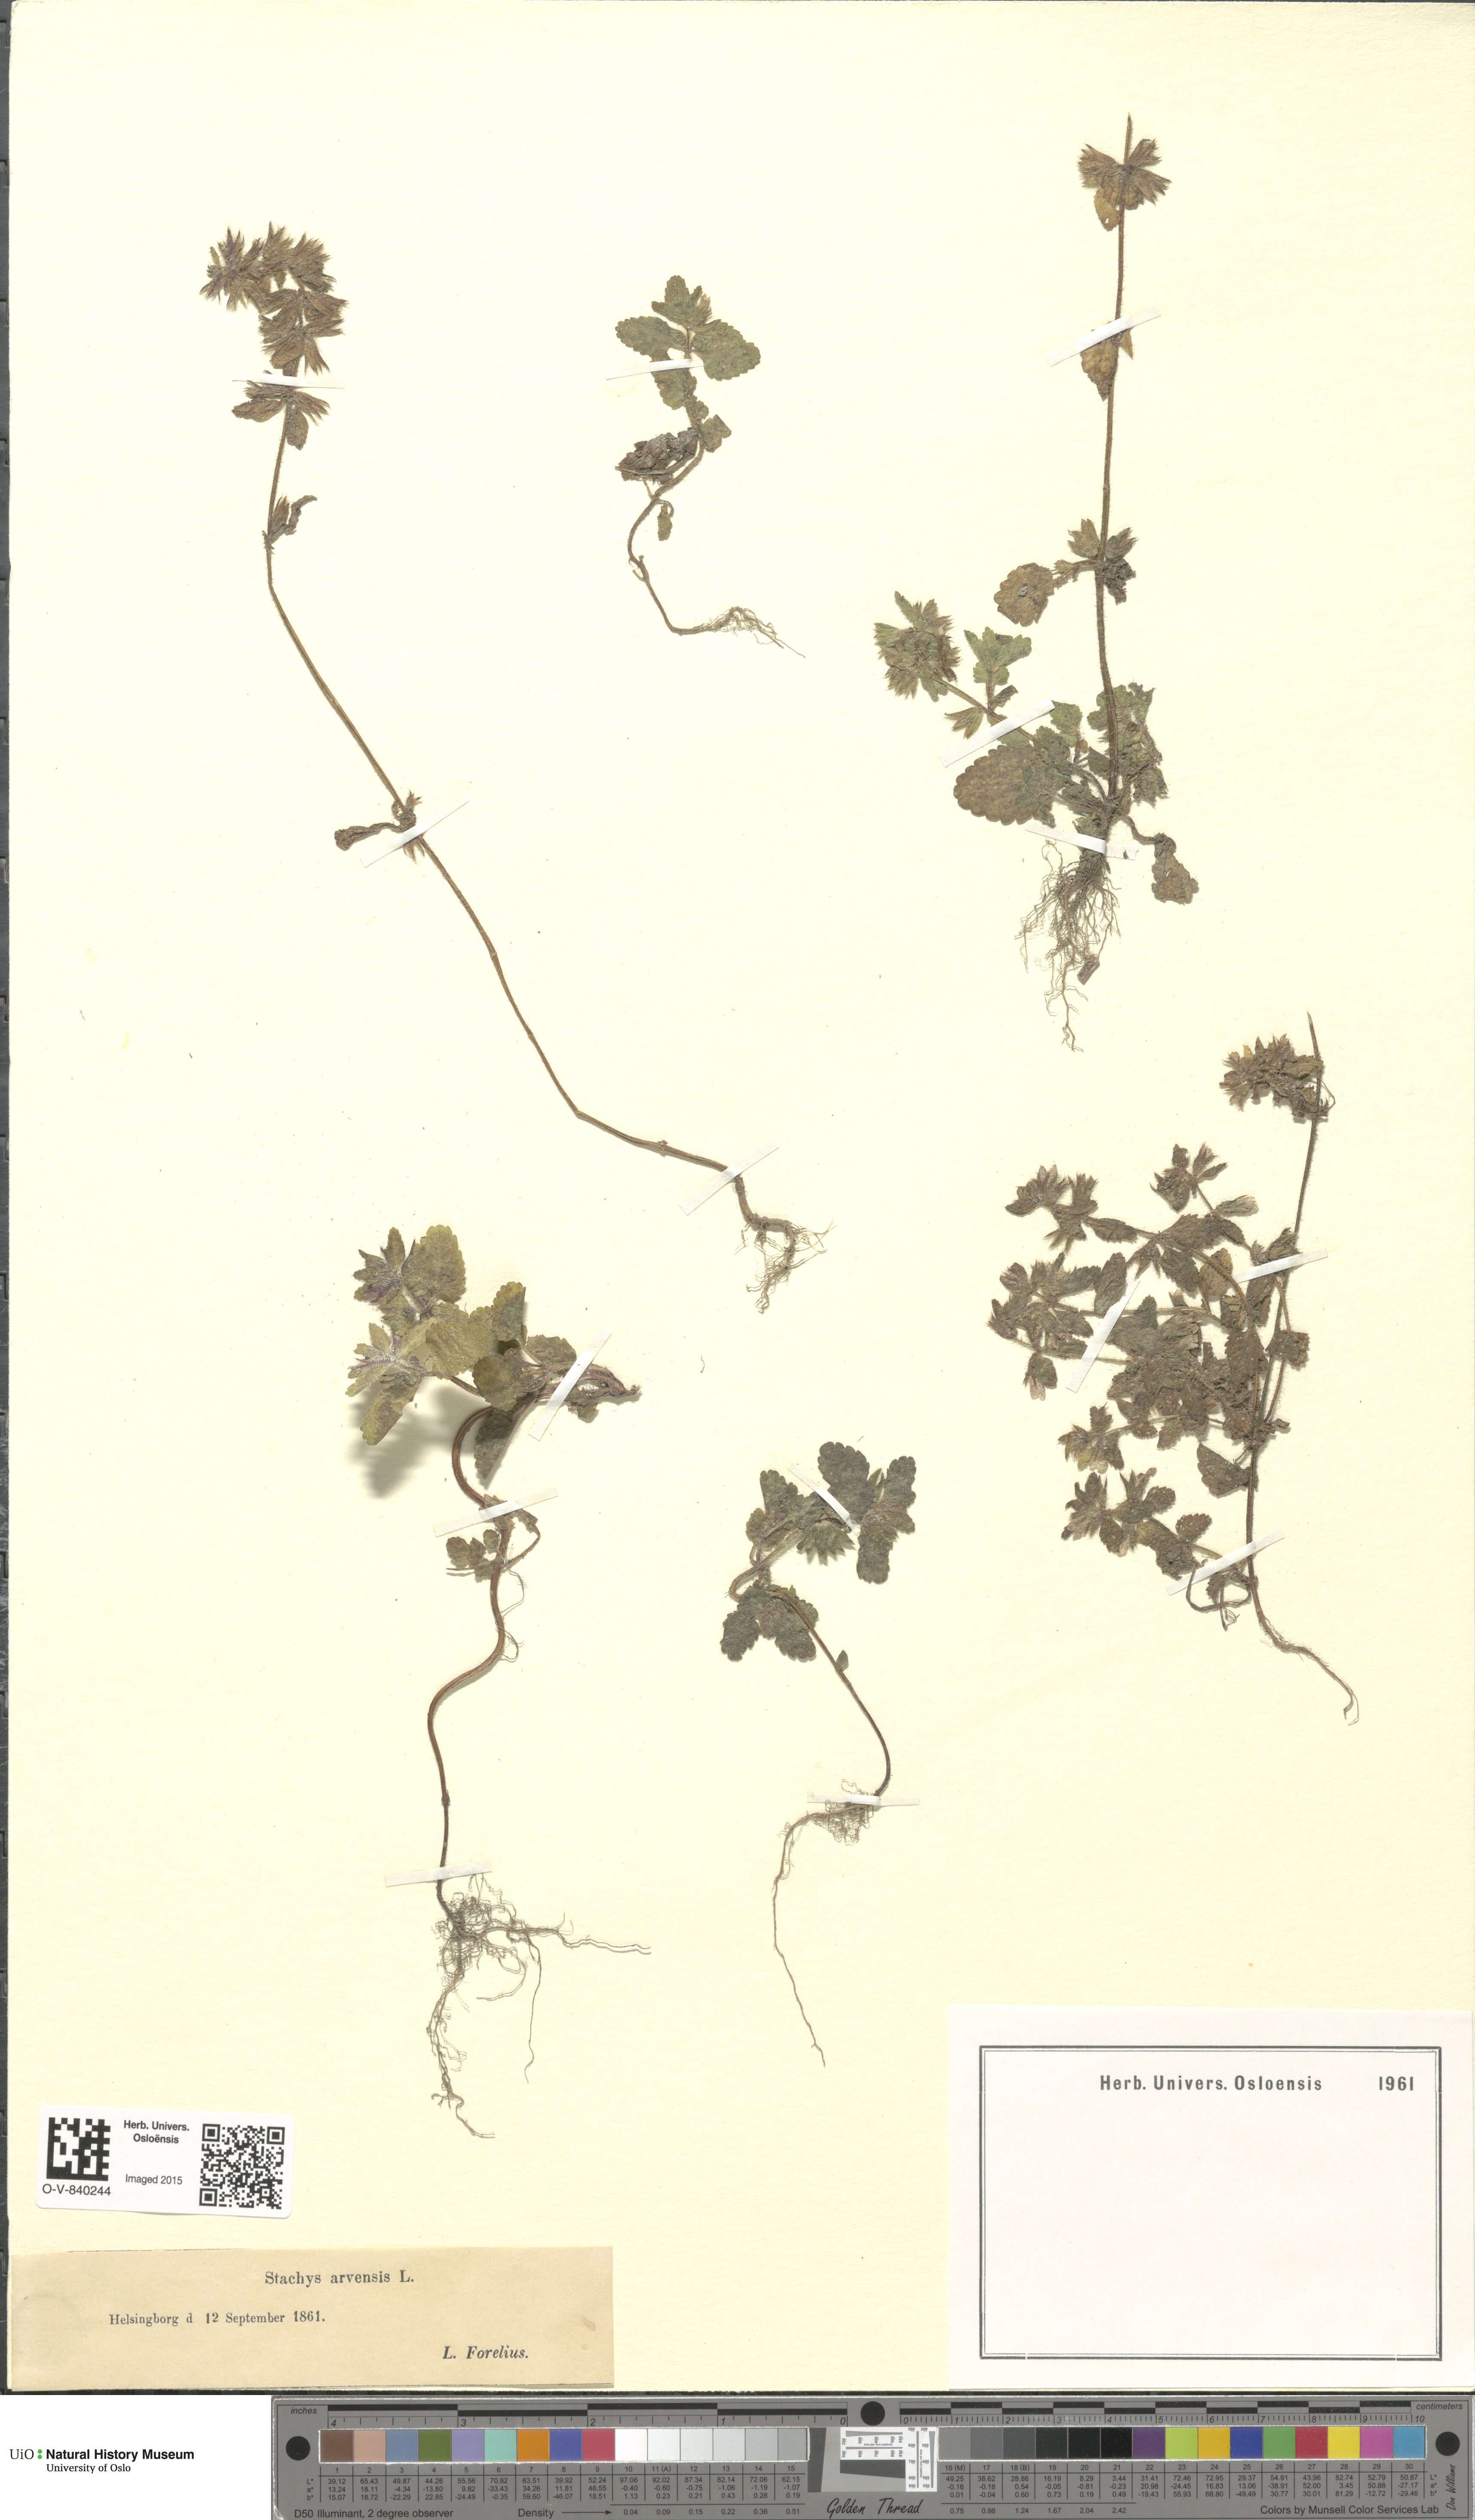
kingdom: Plantae
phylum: Tracheophyta
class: Magnoliopsida
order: Lamiales
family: Lamiaceae
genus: Stachys
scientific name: Stachys arvensis
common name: Field woundwort
